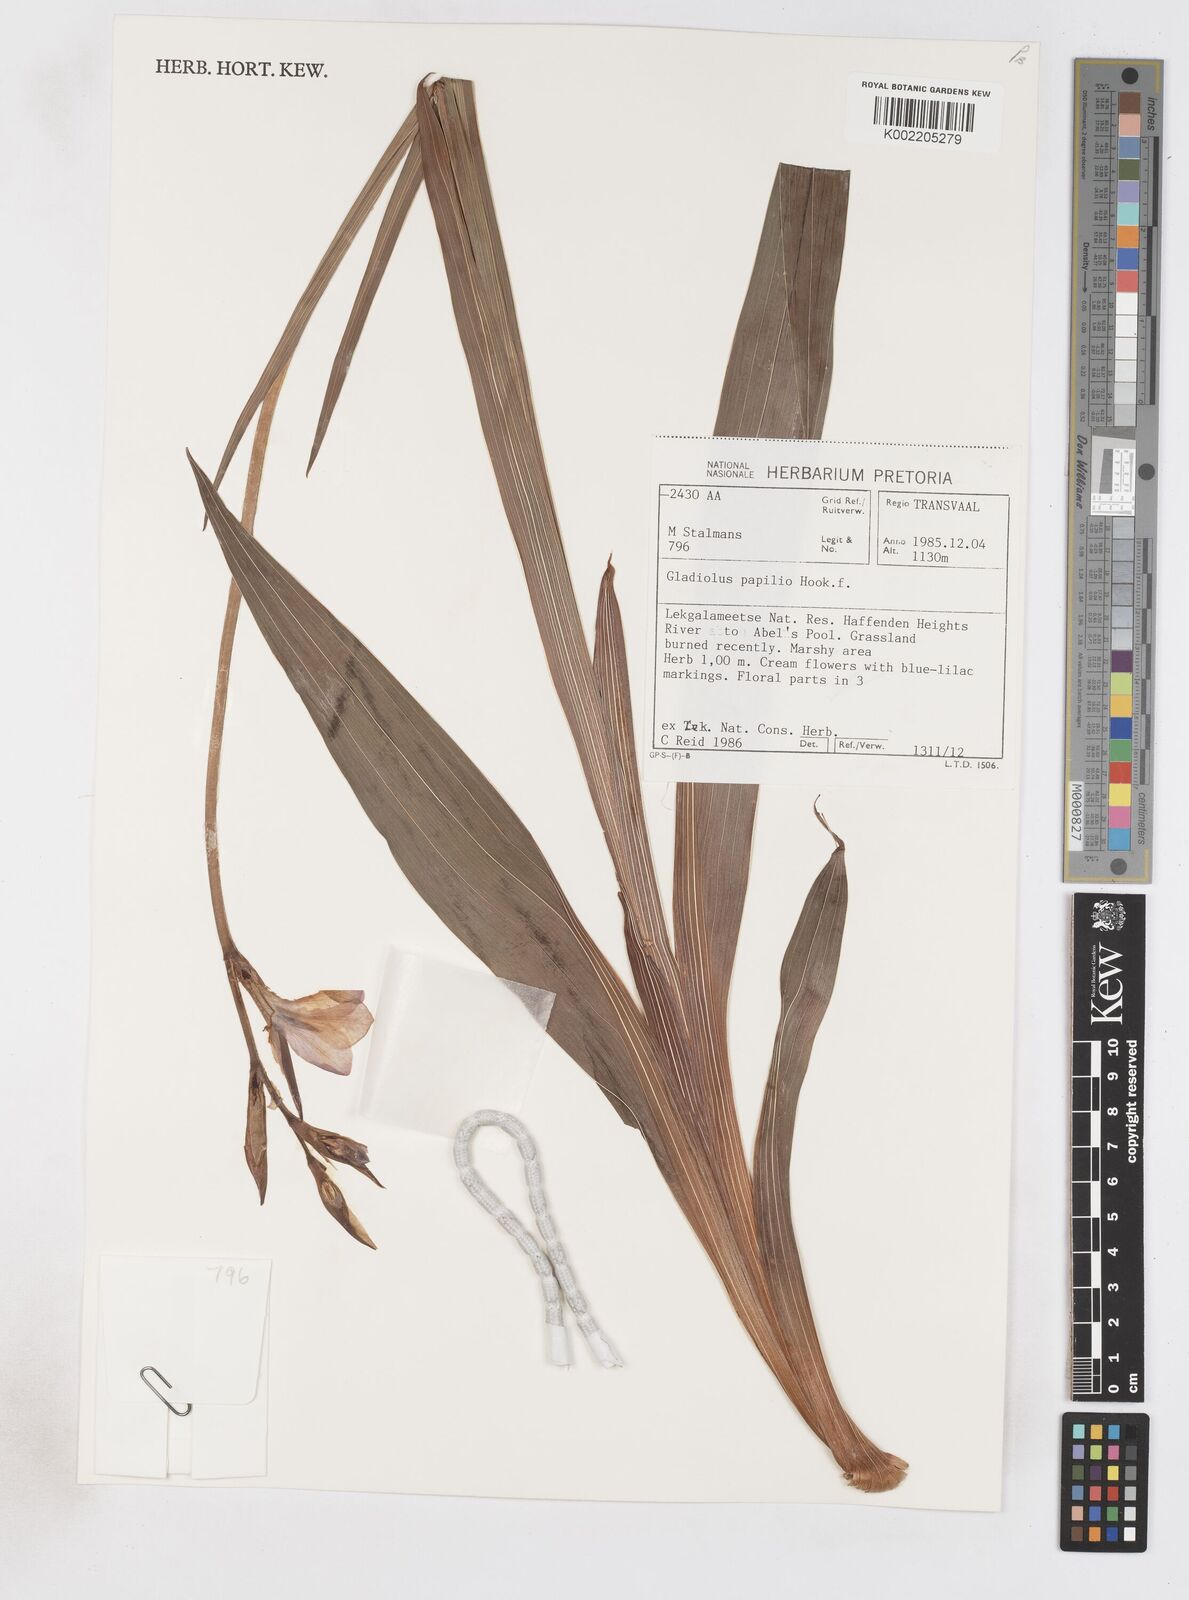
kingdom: Plantae
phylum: Tracheophyta
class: Liliopsida
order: Asparagales
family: Iridaceae
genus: Gladiolus
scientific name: Gladiolus papilio
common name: Goldblotch gladiolus
